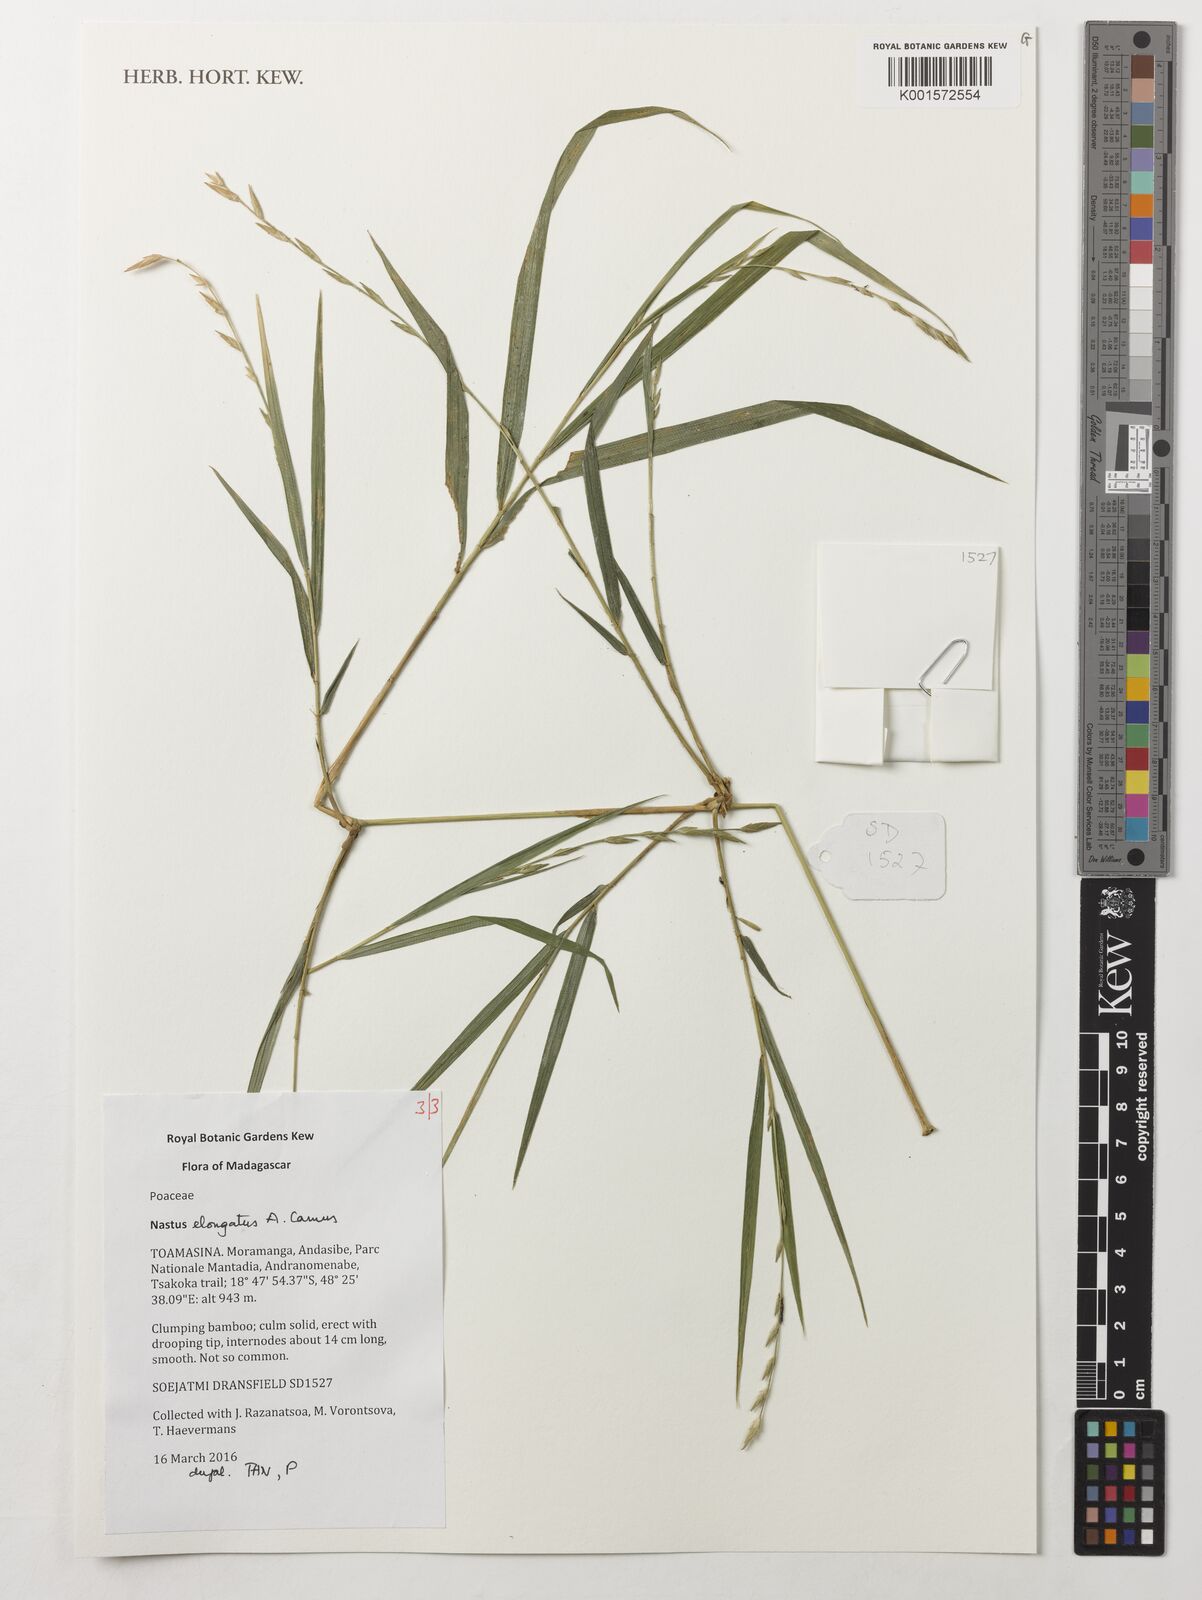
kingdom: Plantae
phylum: Tracheophyta
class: Liliopsida
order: Poales
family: Poaceae
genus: Nastus
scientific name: Nastus elongatus
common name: Spider bamboo
